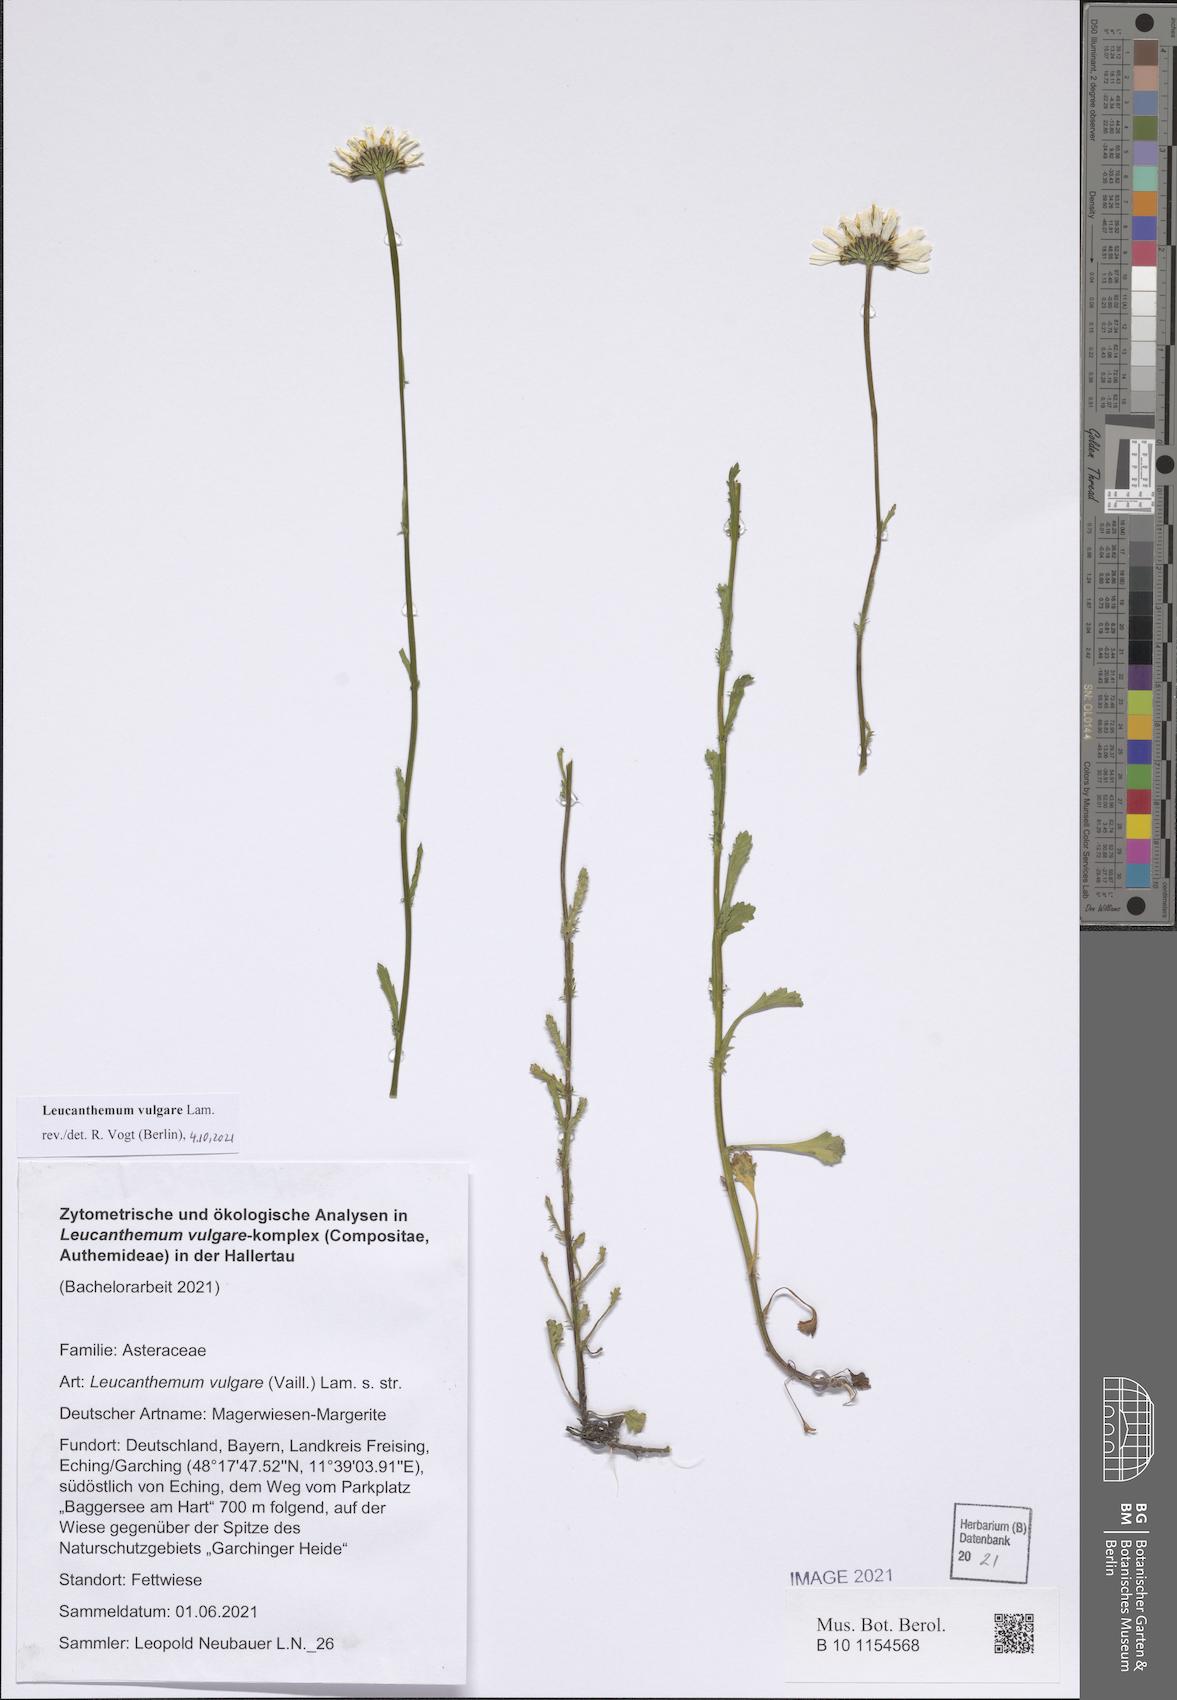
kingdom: Plantae
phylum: Tracheophyta
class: Magnoliopsida
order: Asterales
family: Asteraceae
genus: Leucanthemum
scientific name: Leucanthemum vulgare
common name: Oxeye daisy
